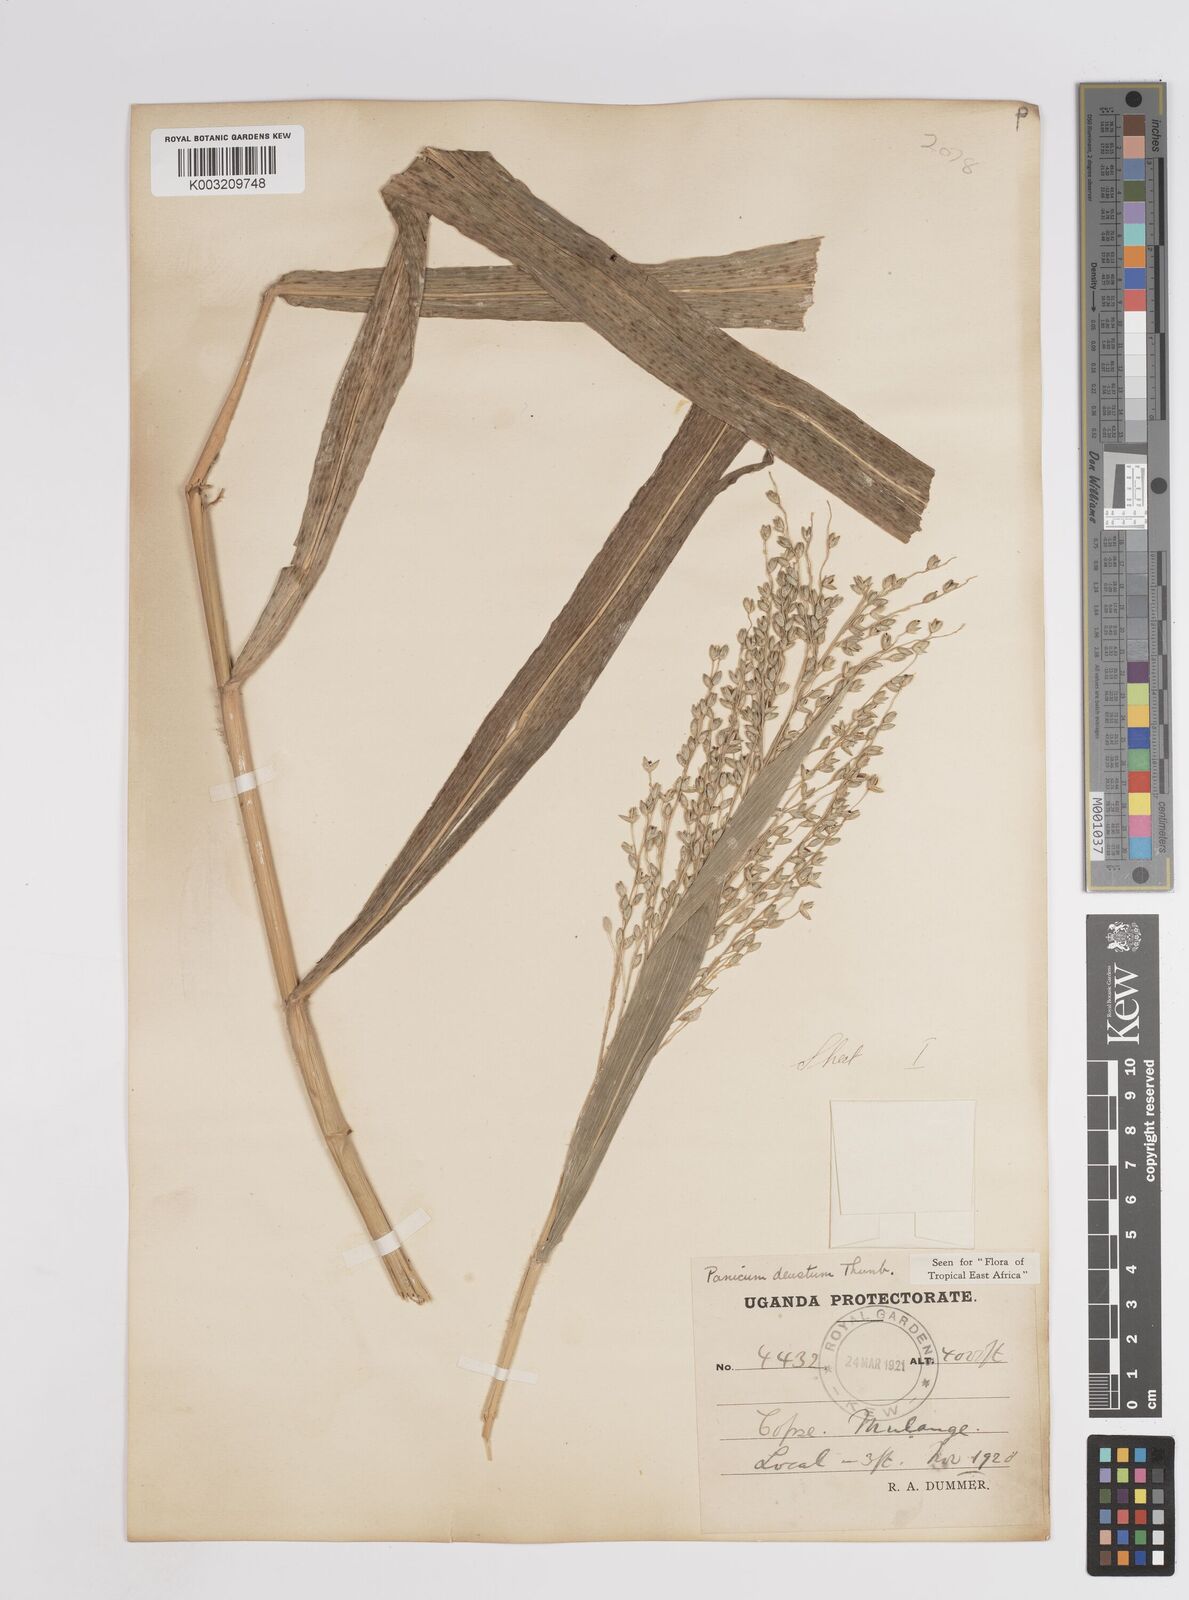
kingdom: Plantae
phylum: Tracheophyta
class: Liliopsida
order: Poales
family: Poaceae
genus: Panicum
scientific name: Panicum
